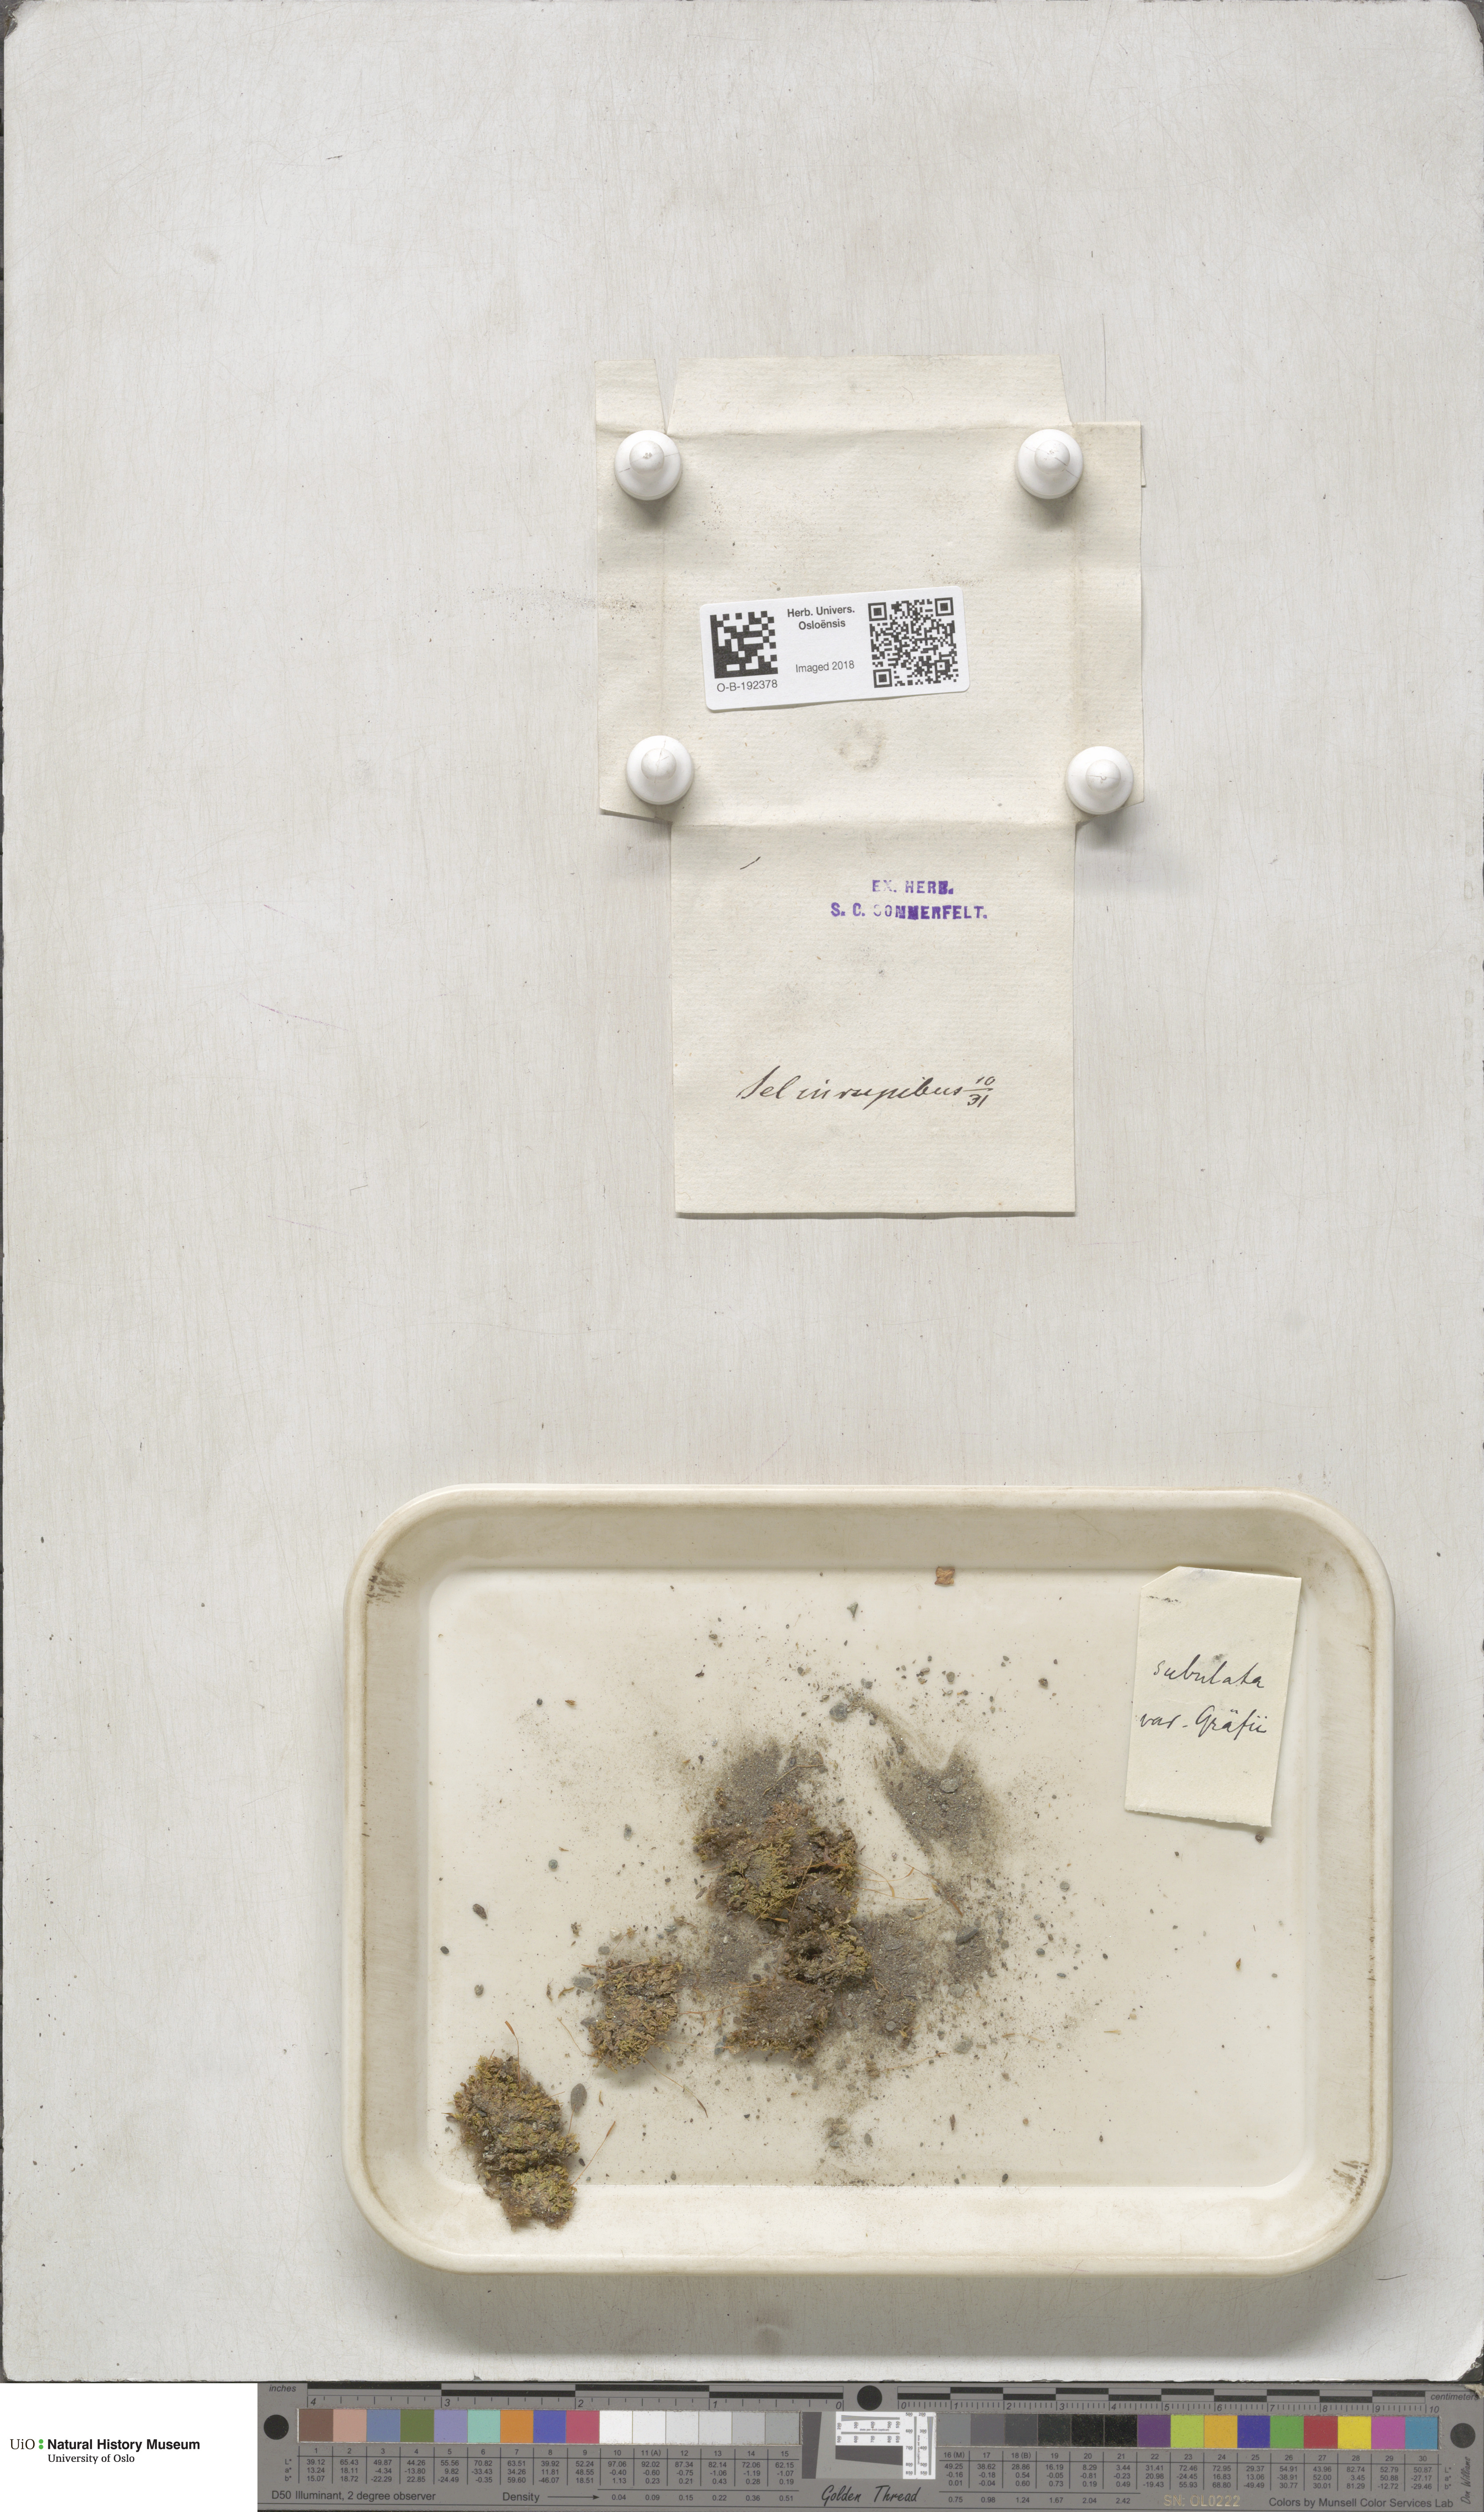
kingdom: Plantae
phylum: Bryophyta
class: Bryopsida
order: Pottiales
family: Pottiaceae
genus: Tortula
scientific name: Tortula subulata
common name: Upright screw-moss
